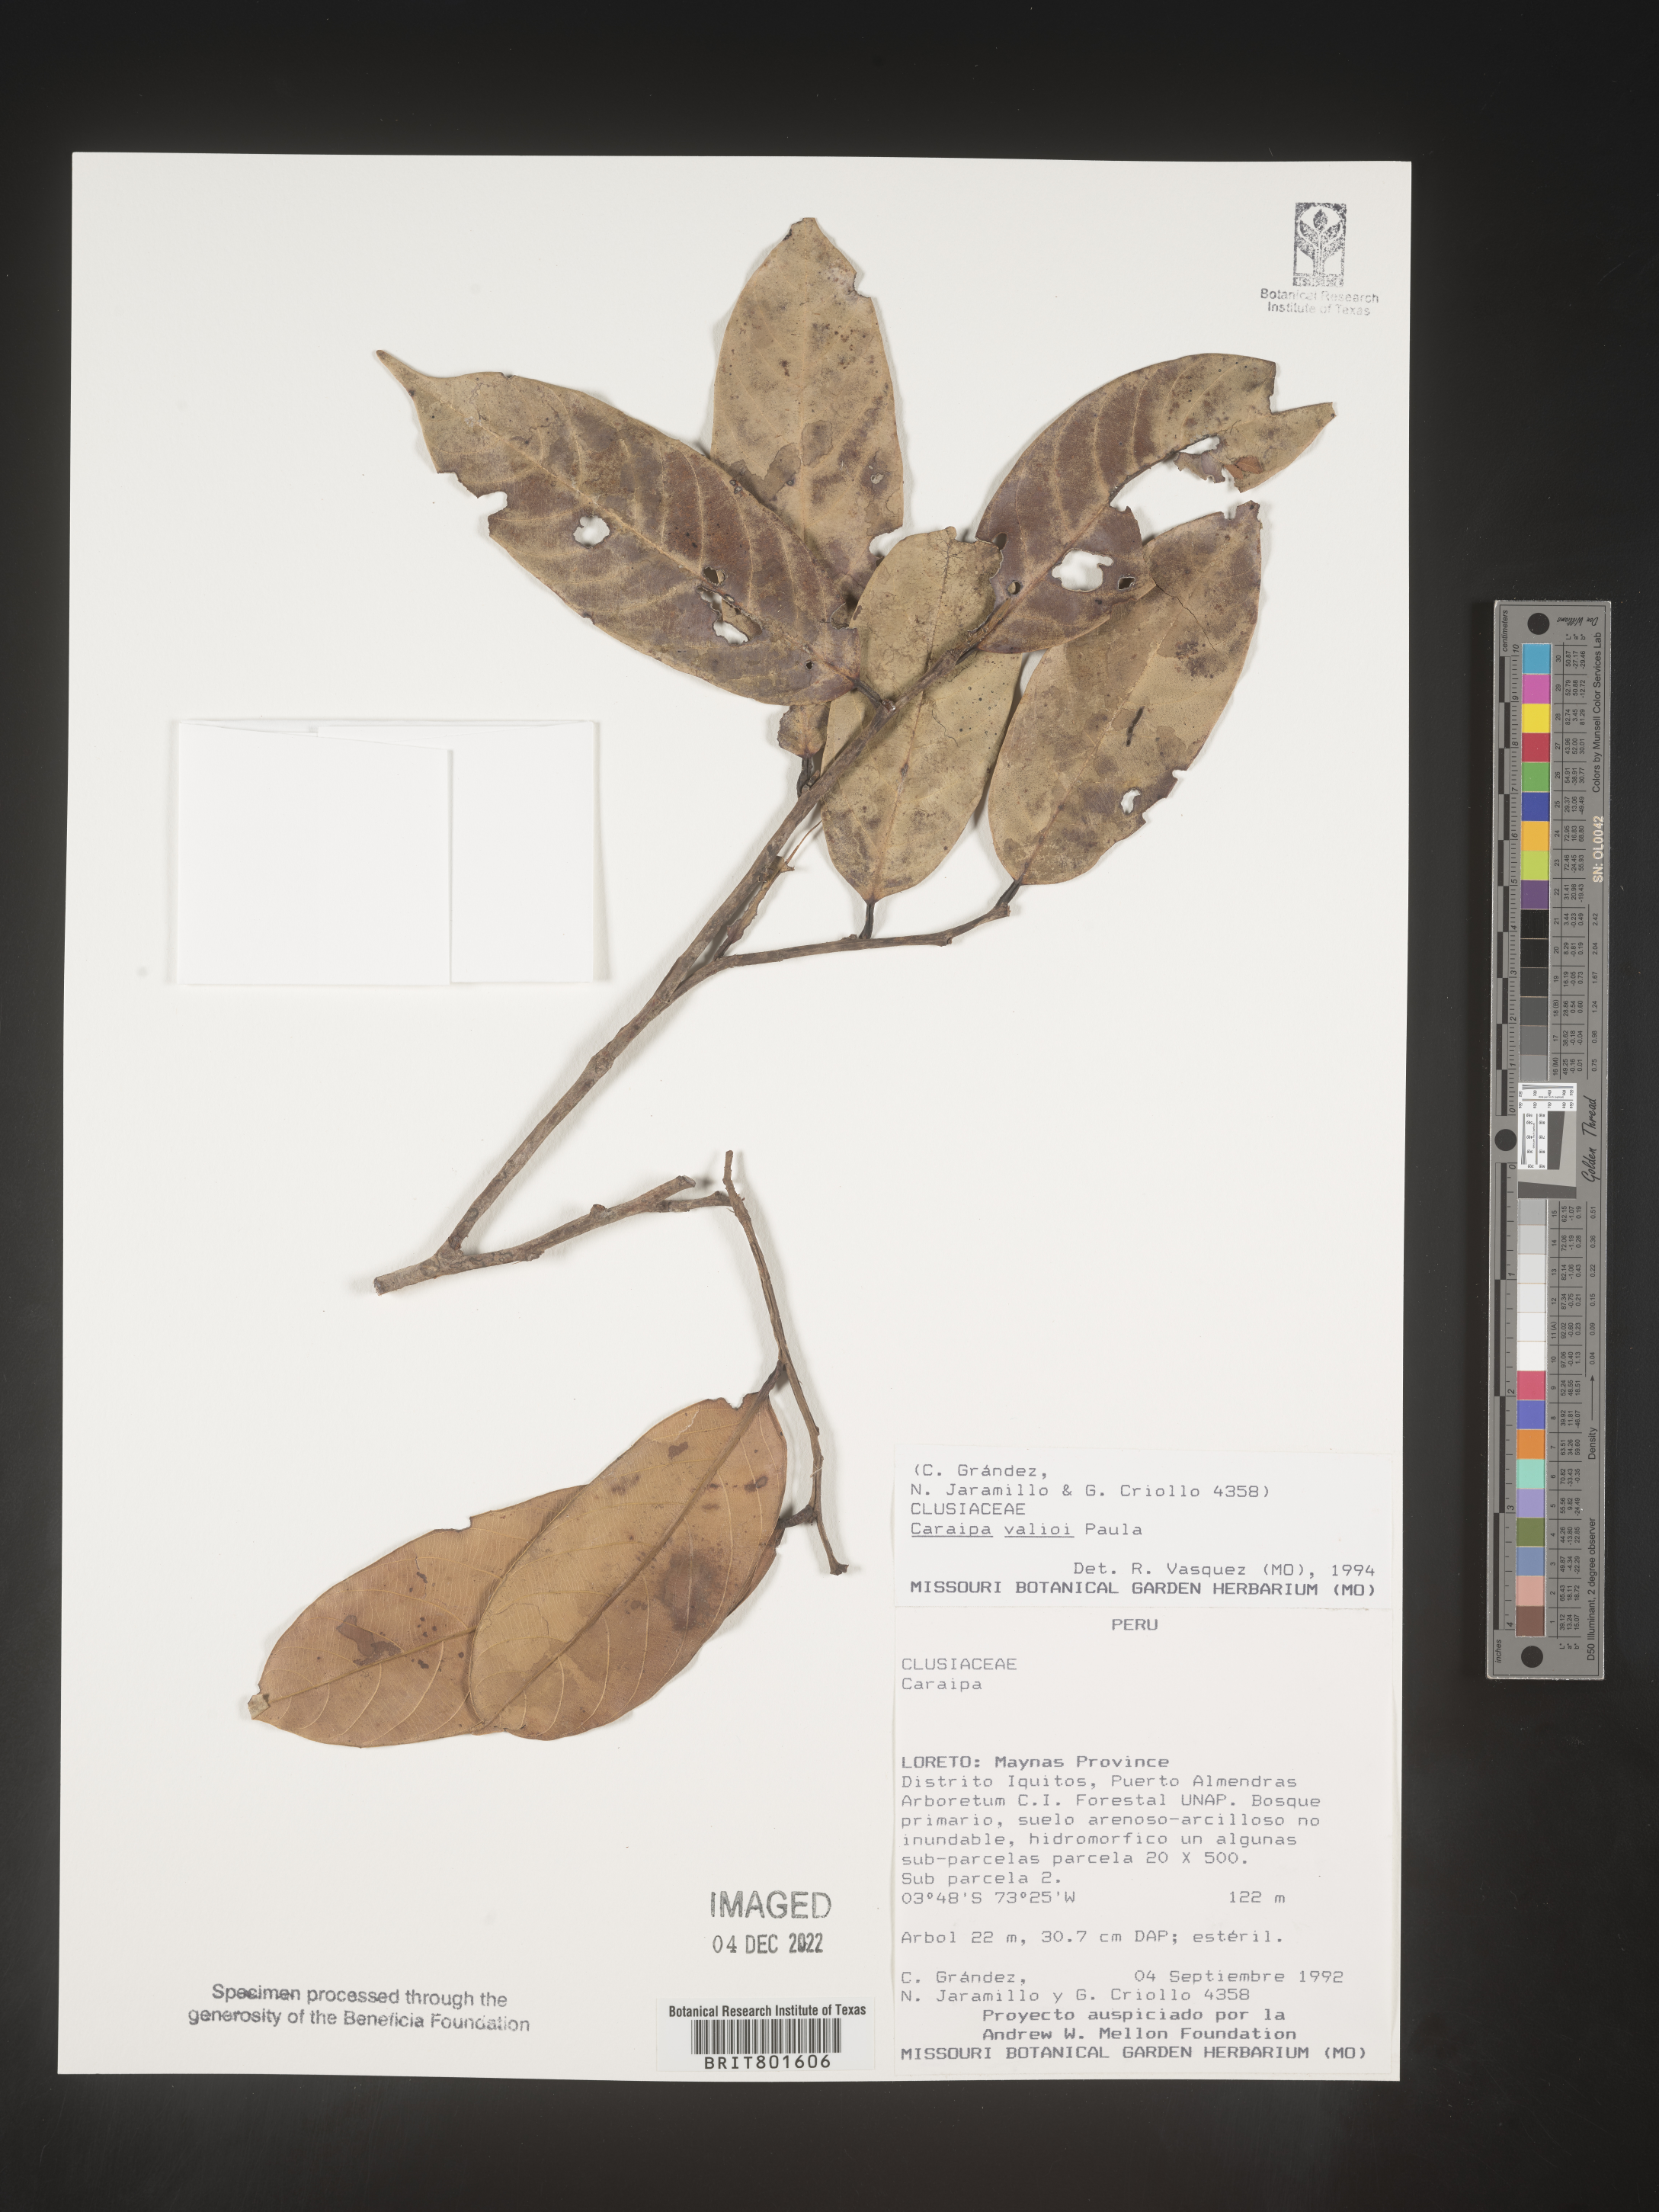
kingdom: Plantae
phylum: Tracheophyta
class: Magnoliopsida
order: Malpighiales
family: Calophyllaceae
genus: Caraipa
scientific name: Caraipa valioi
